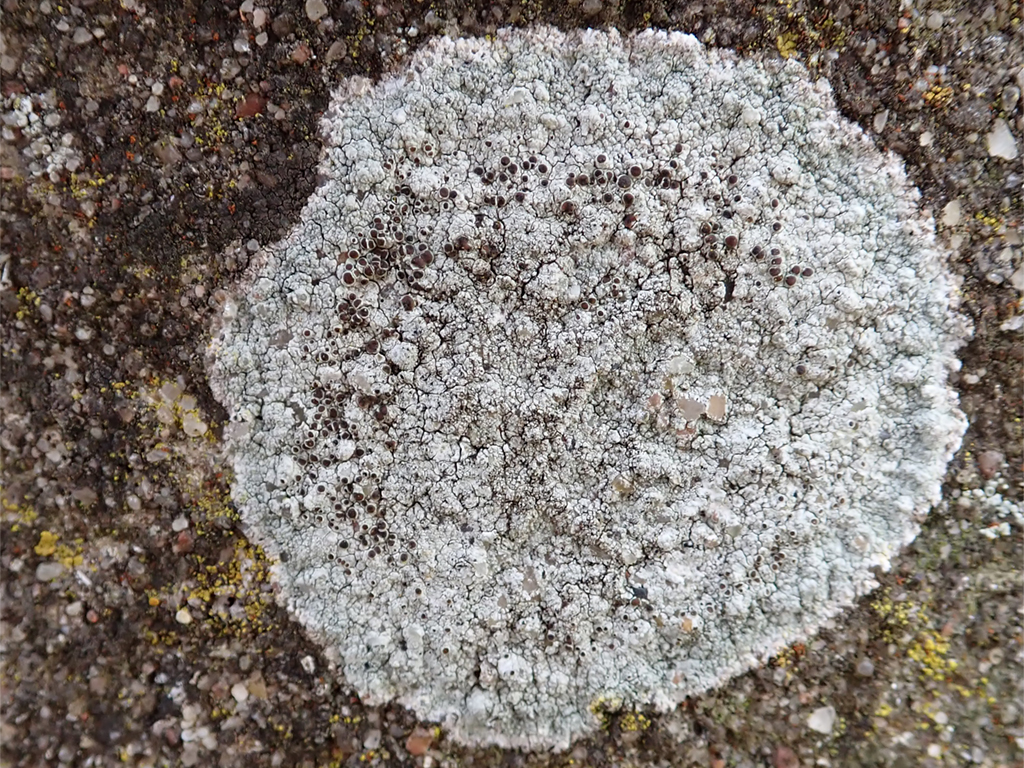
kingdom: Fungi
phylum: Ascomycota
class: Lecanoromycetes
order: Lecanorales
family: Lecanoraceae
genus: Lecanora
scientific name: Lecanora campestris
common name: mur-kantskivelav
